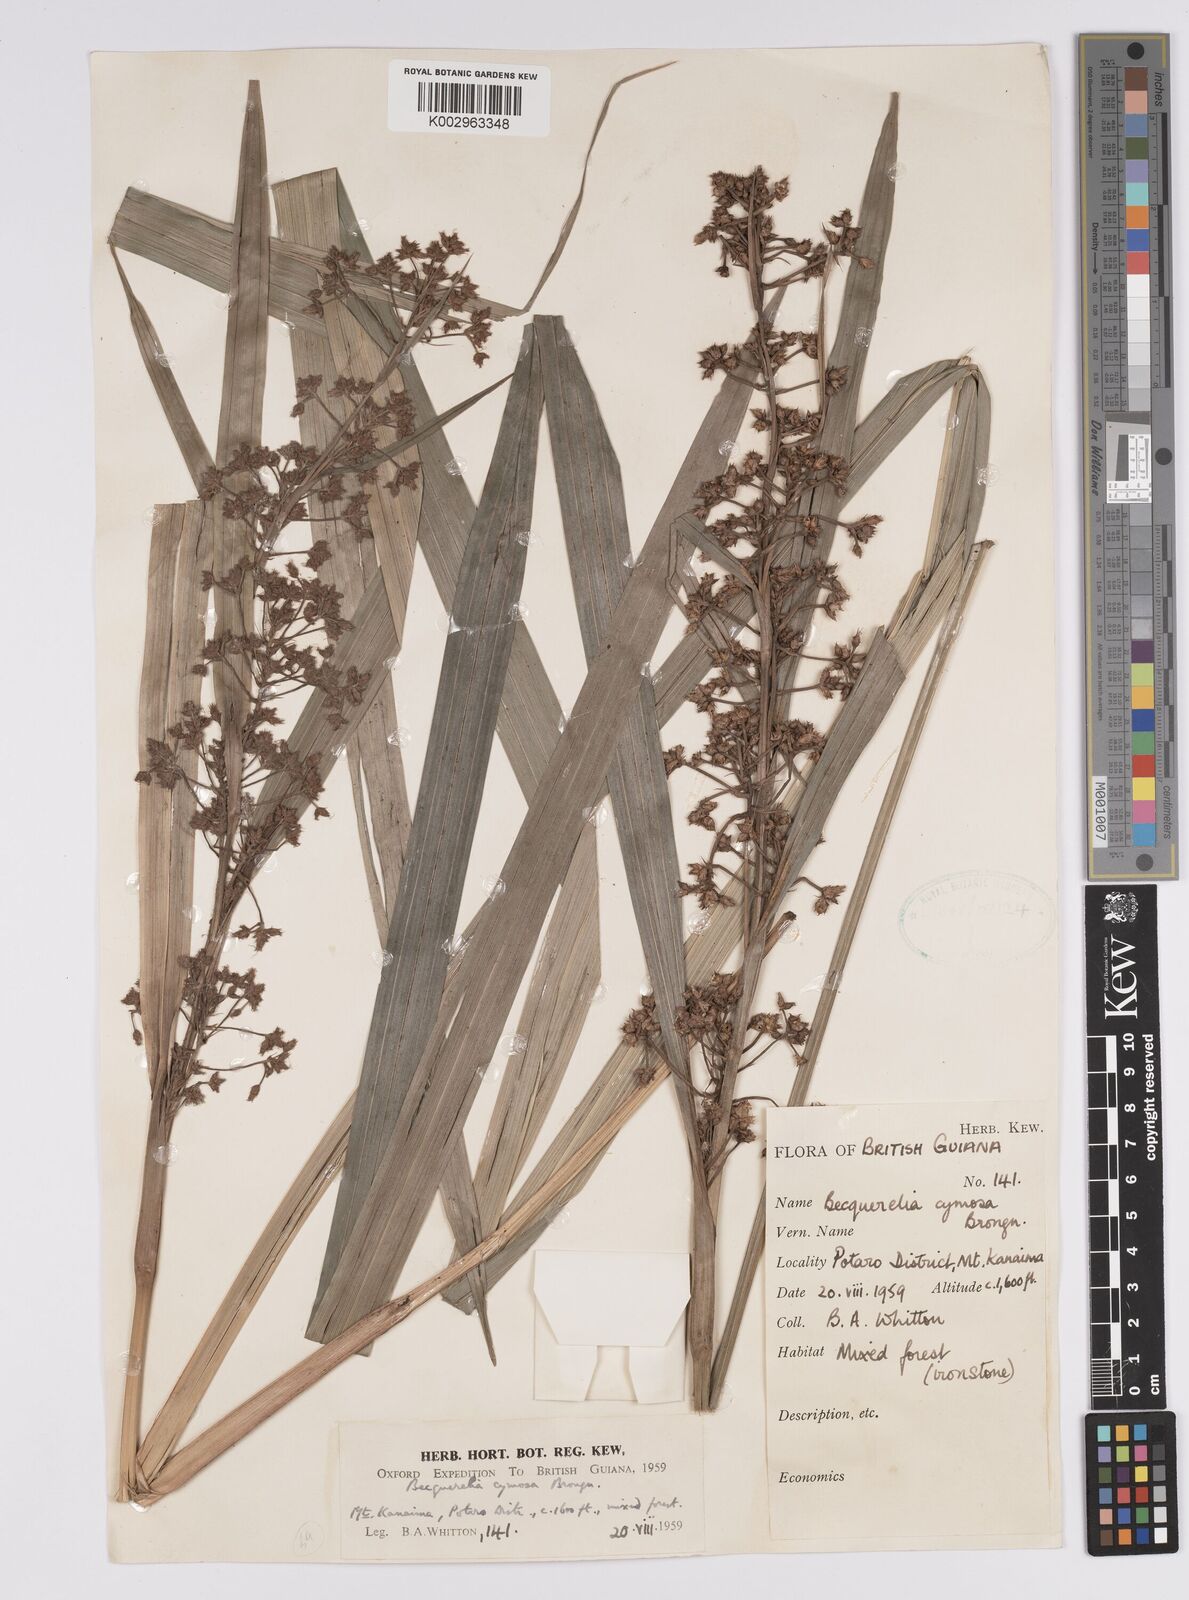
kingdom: Plantae
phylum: Tracheophyta
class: Liliopsida
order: Poales
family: Cyperaceae
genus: Becquerelia
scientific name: Becquerelia cymosa
